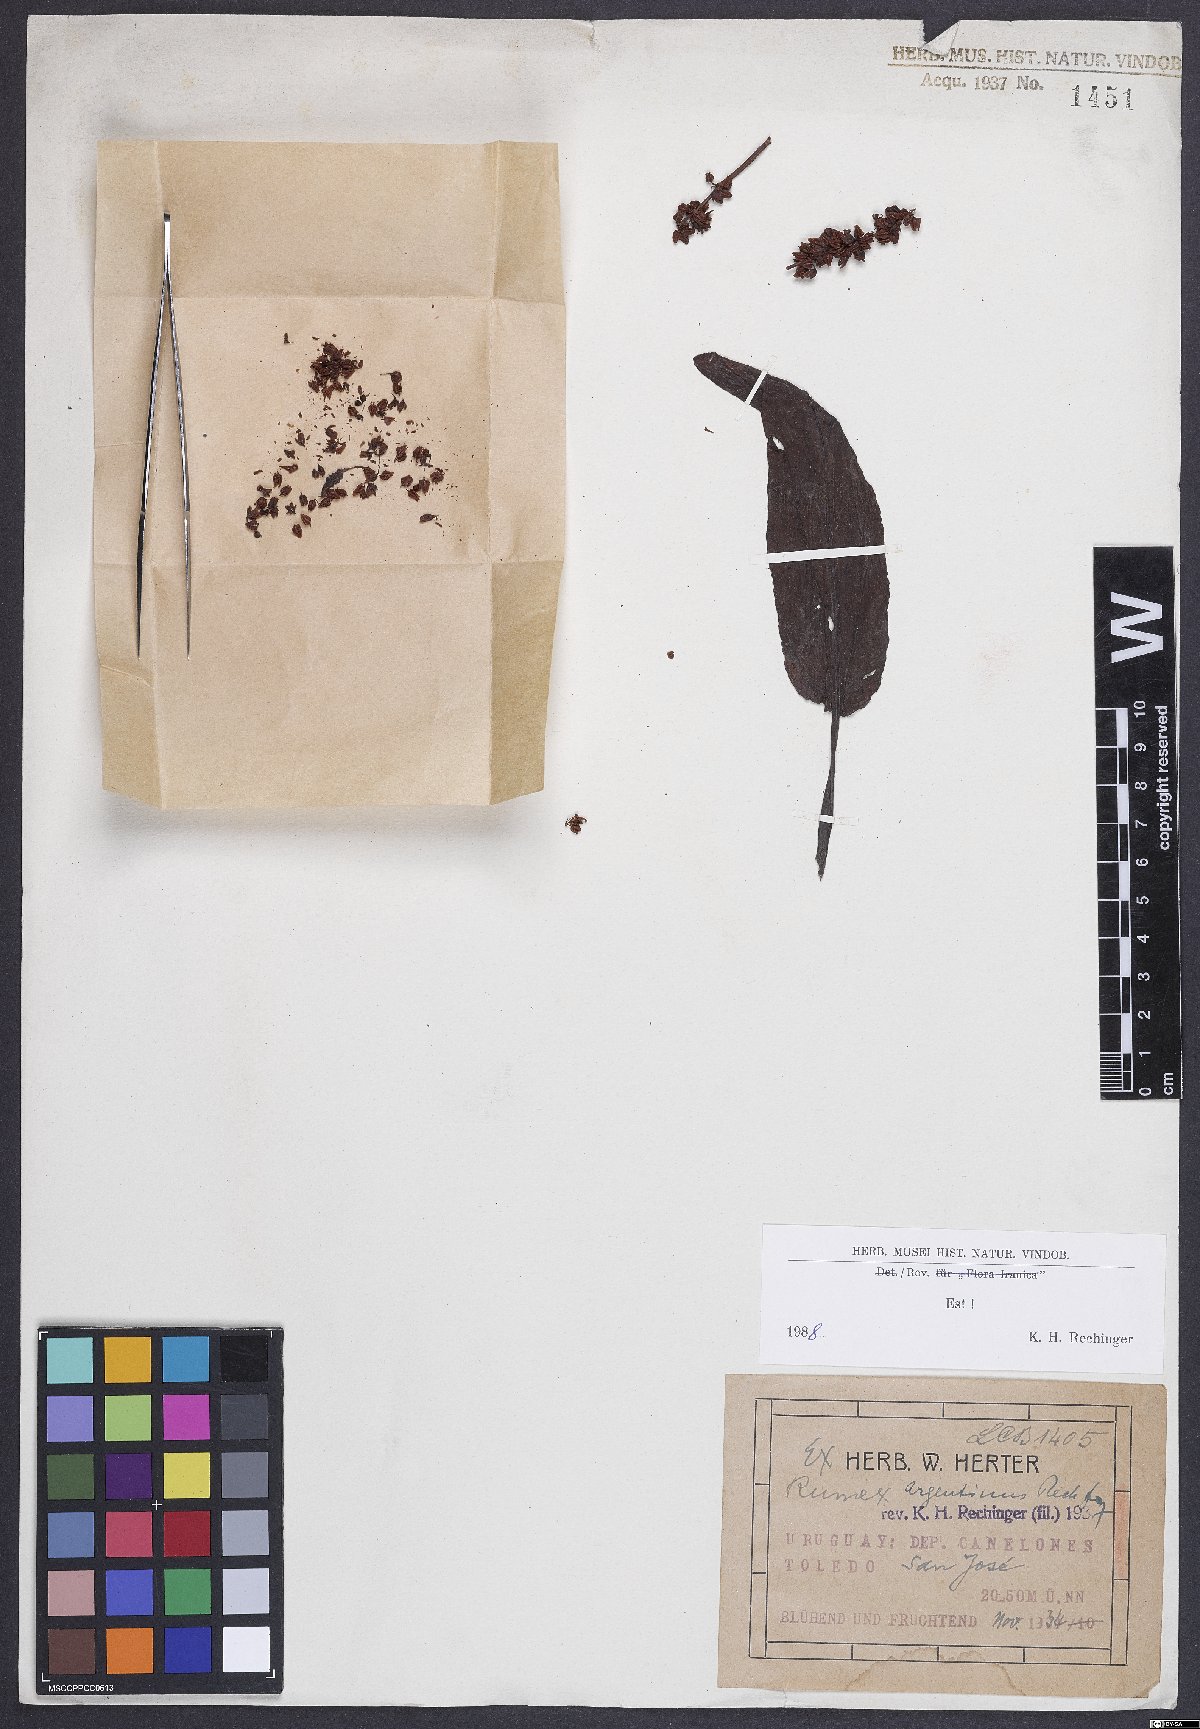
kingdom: Plantae
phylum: Tracheophyta
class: Magnoliopsida
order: Caryophyllales
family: Polygonaceae
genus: Rumex
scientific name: Rumex argentinus
